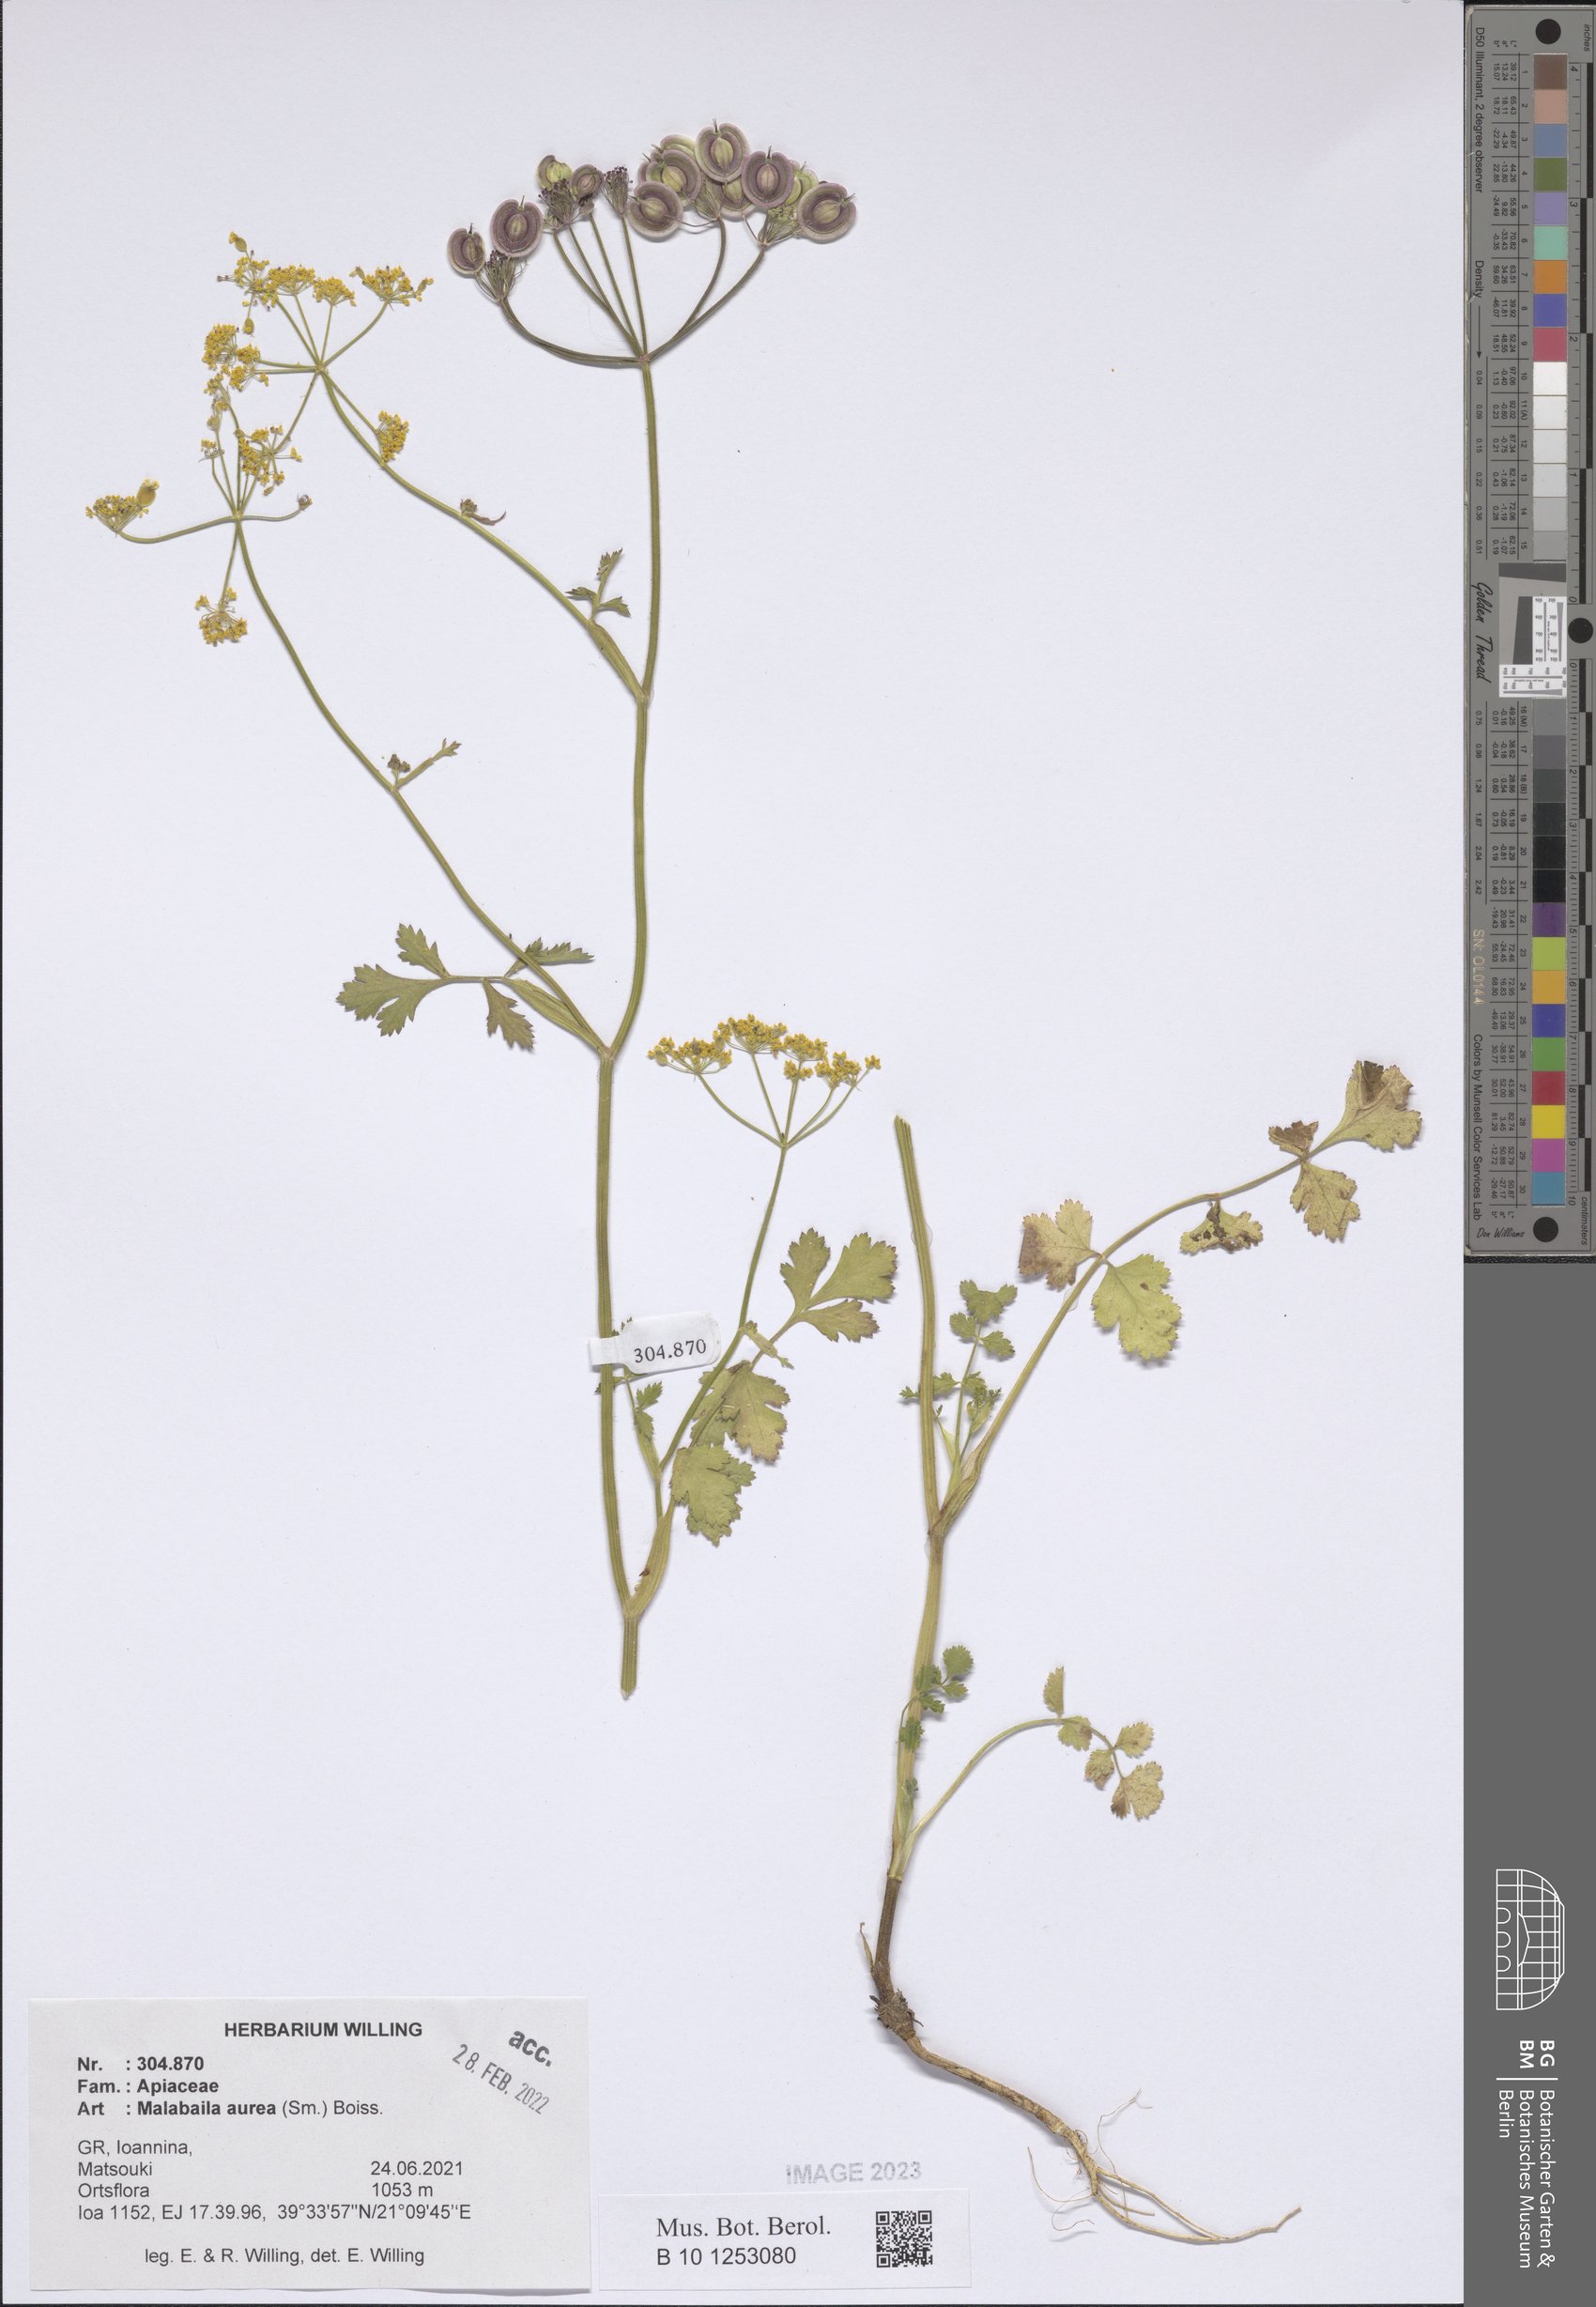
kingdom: Plantae
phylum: Tracheophyta
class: Magnoliopsida
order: Apiales
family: Apiaceae
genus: Leiotulus
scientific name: Leiotulus aureus
